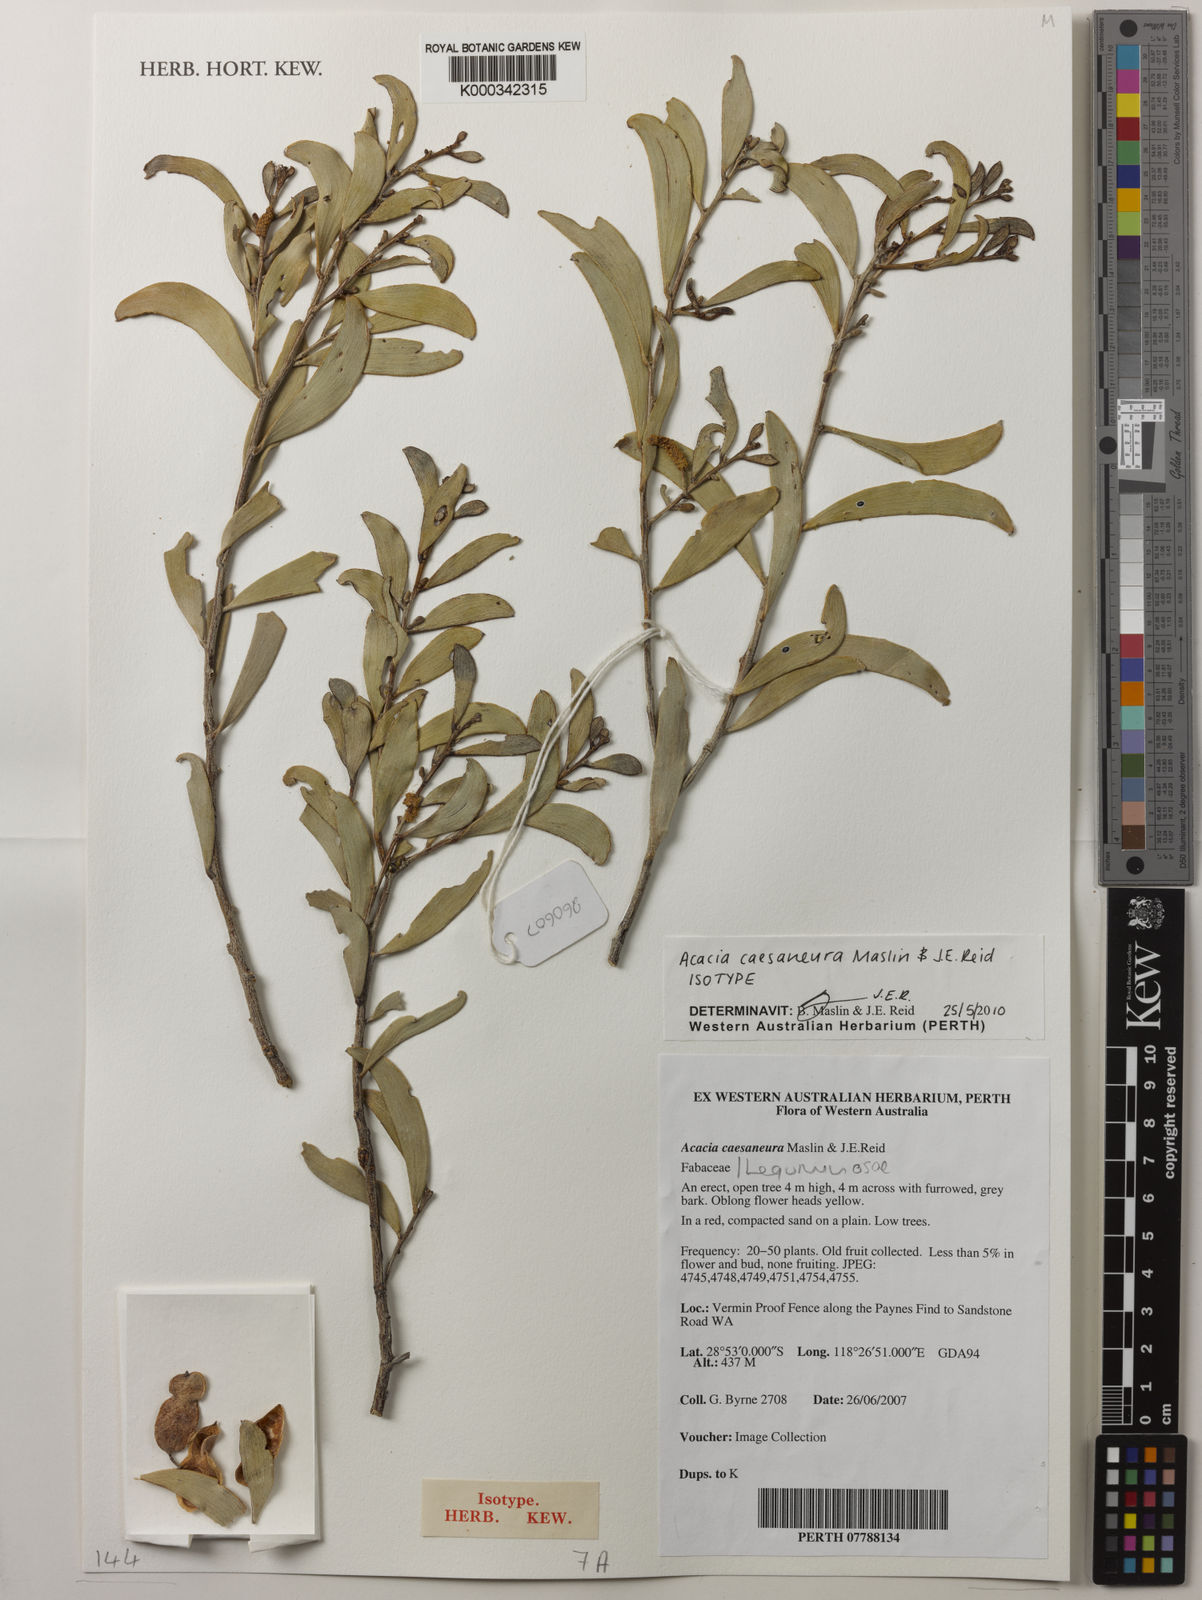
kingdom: Plantae
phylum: Tracheophyta
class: Magnoliopsida
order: Fabales
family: Fabaceae
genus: Acacia
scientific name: Acacia caesaneura
